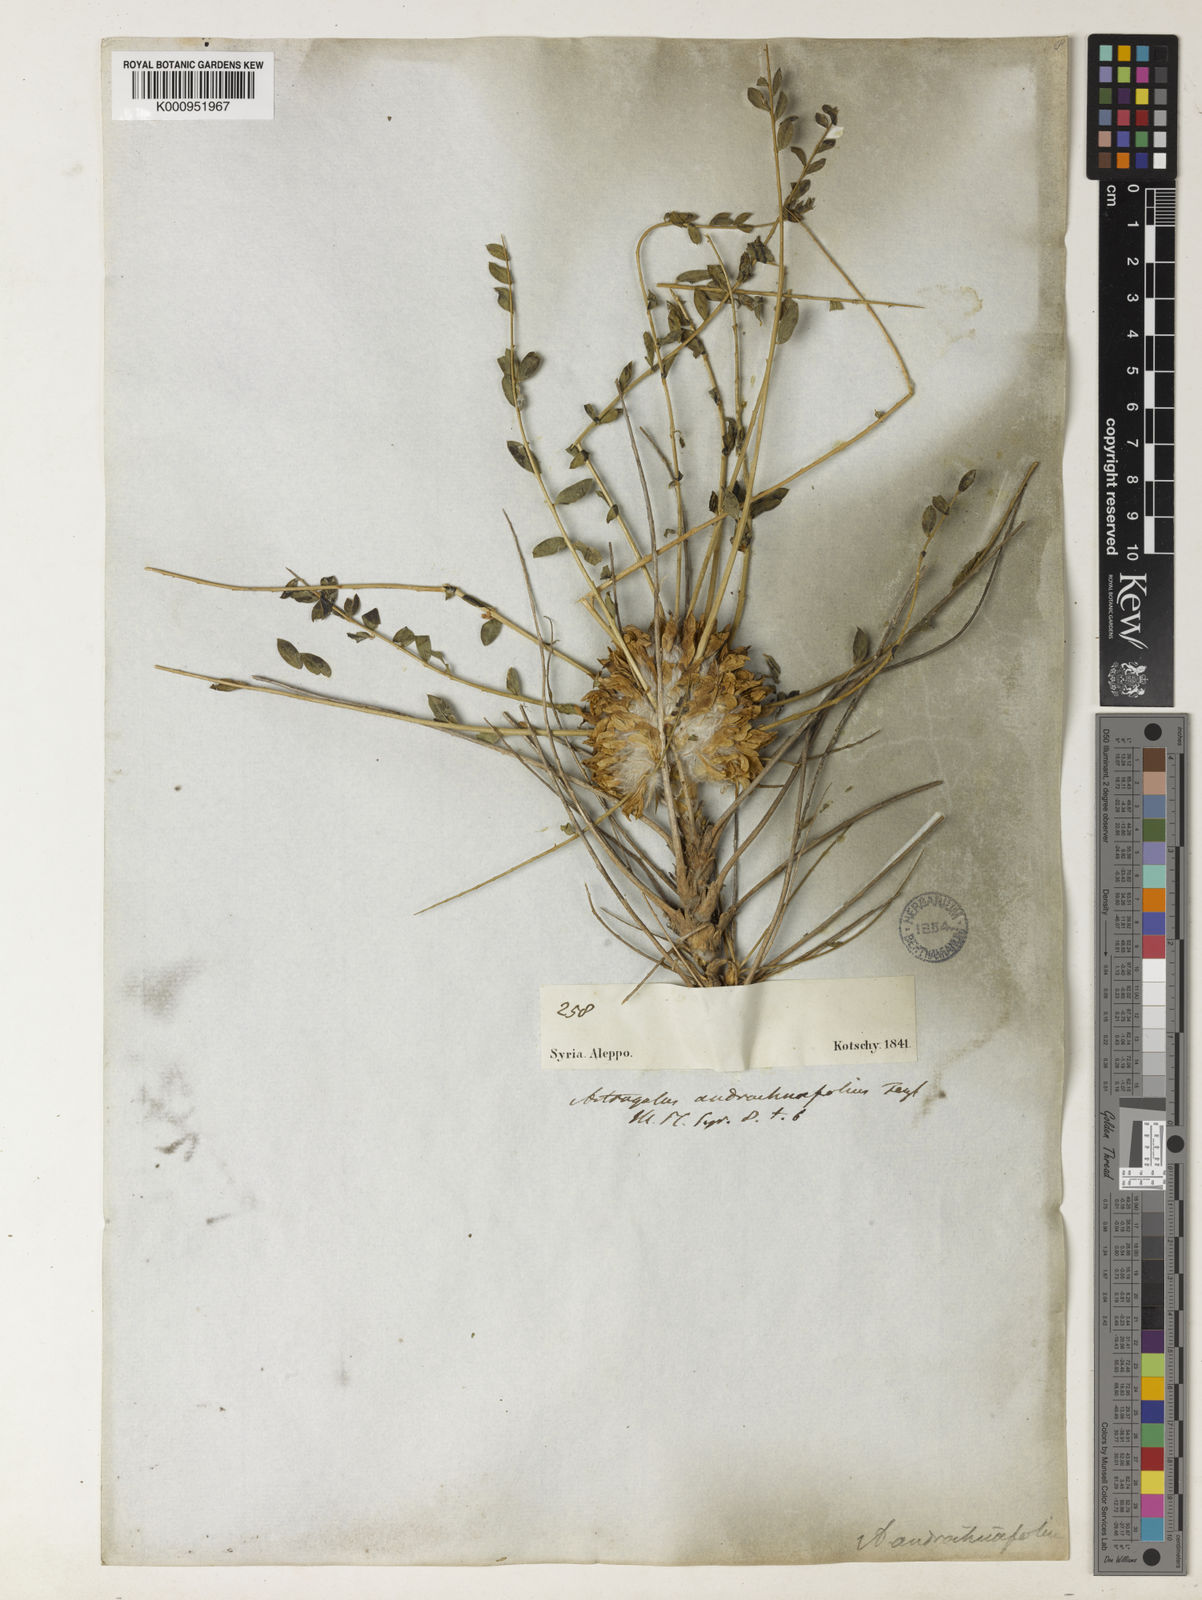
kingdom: Plantae
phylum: Tracheophyta
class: Magnoliopsida
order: Fabales
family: Fabaceae
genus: Astragalus
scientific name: Astragalus cephalotes
